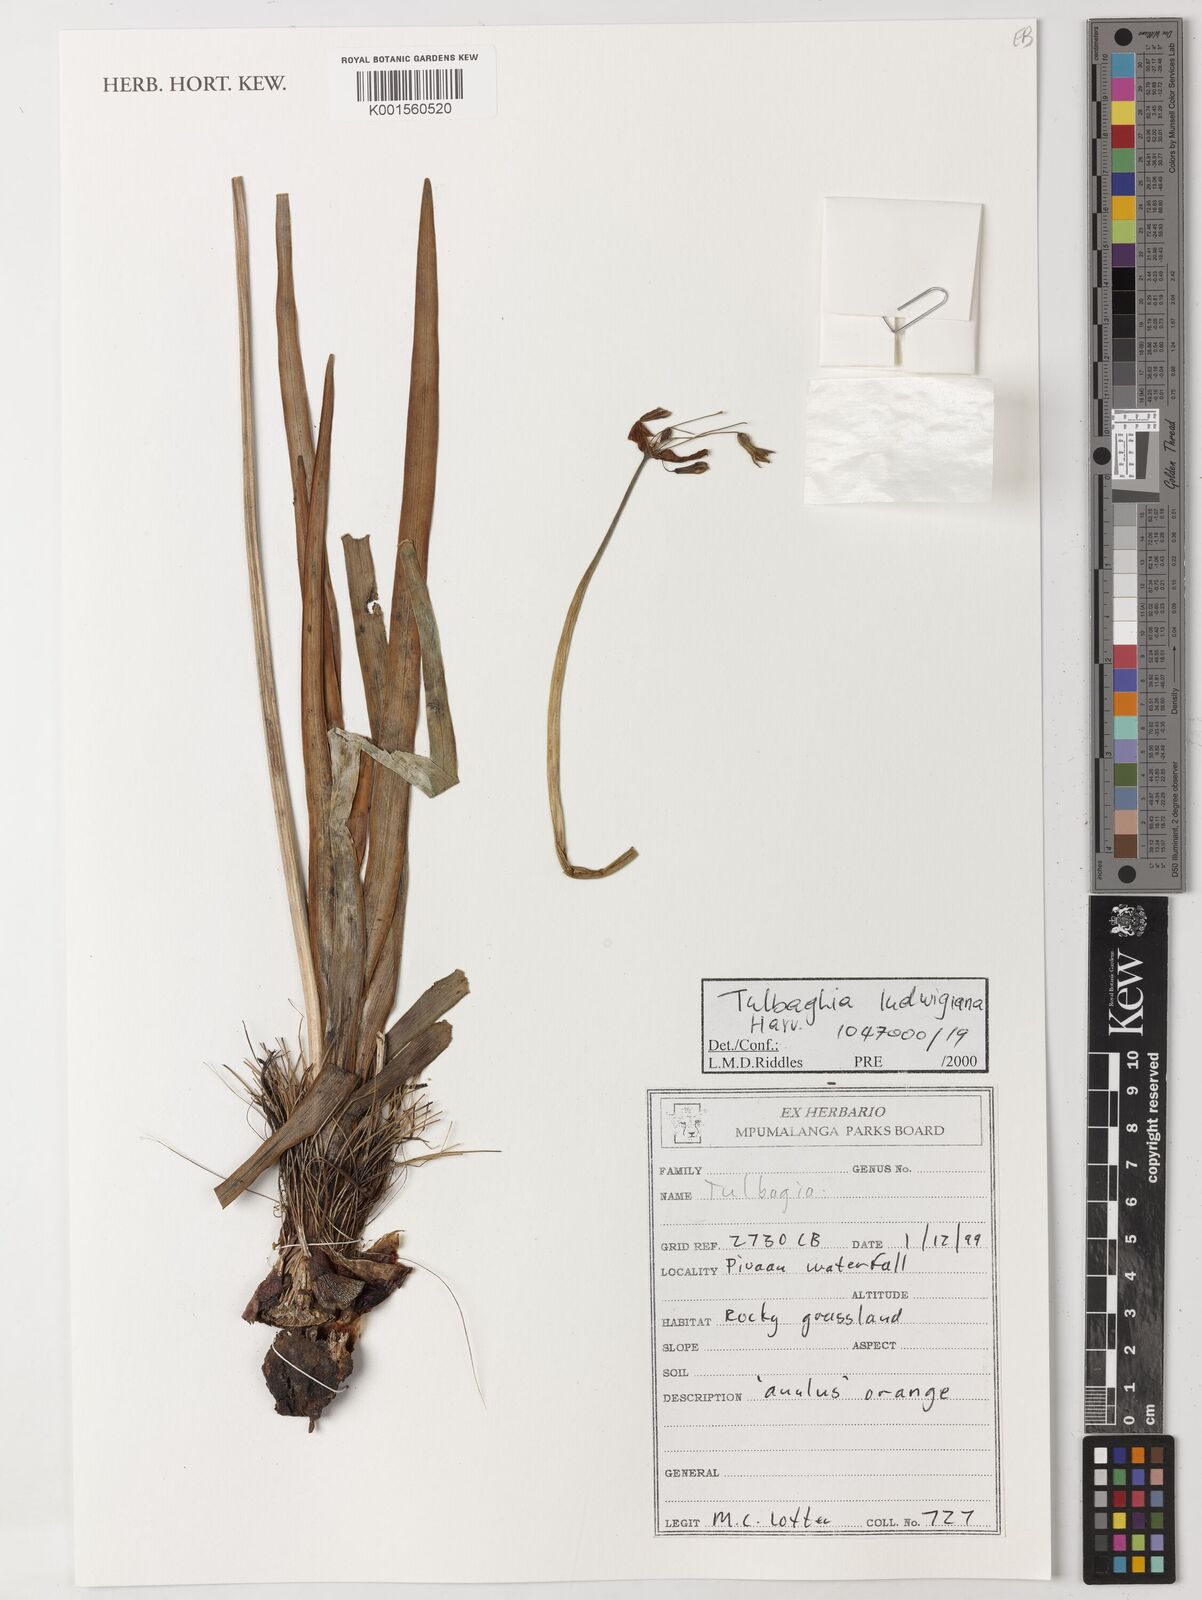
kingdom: Plantae
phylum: Tracheophyta
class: Liliopsida
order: Asparagales
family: Amaryllidaceae
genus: Tulbaghia
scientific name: Tulbaghia ludwigiana
